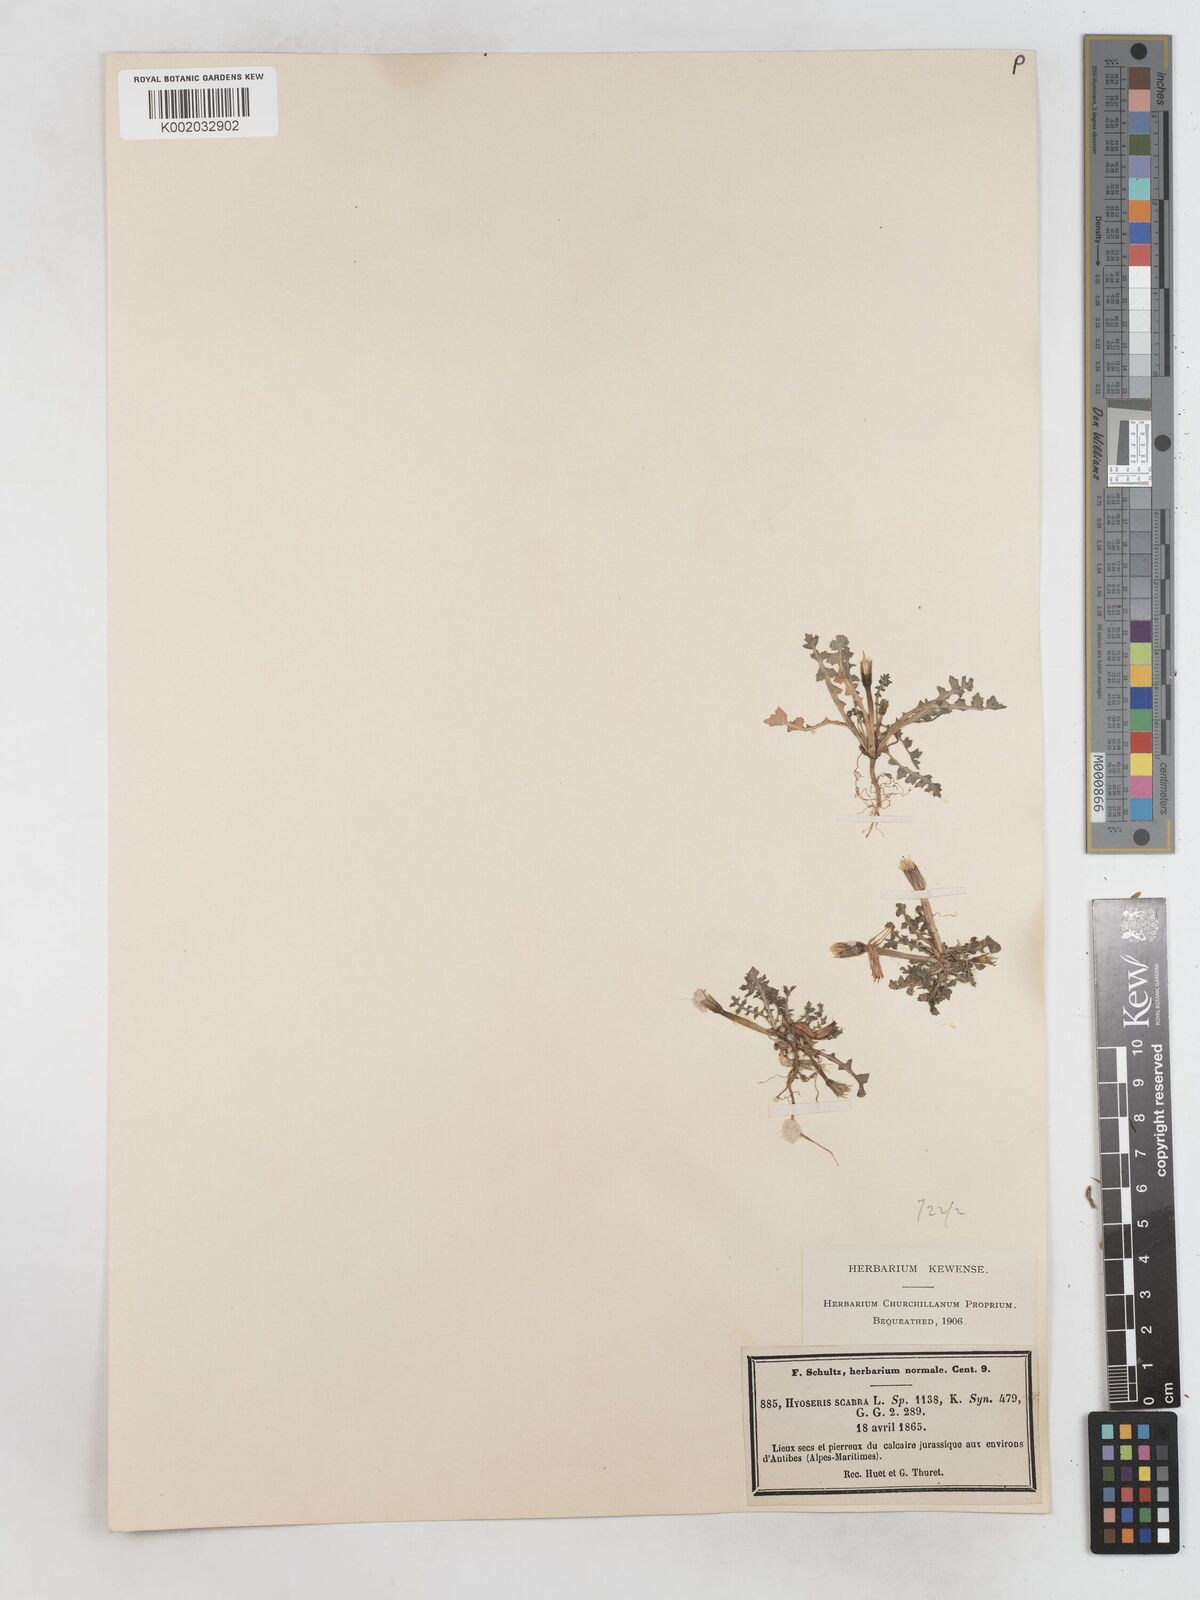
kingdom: Plantae
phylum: Tracheophyta
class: Magnoliopsida
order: Asterales
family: Asteraceae
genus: Hyoseris
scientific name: Hyoseris scabra
